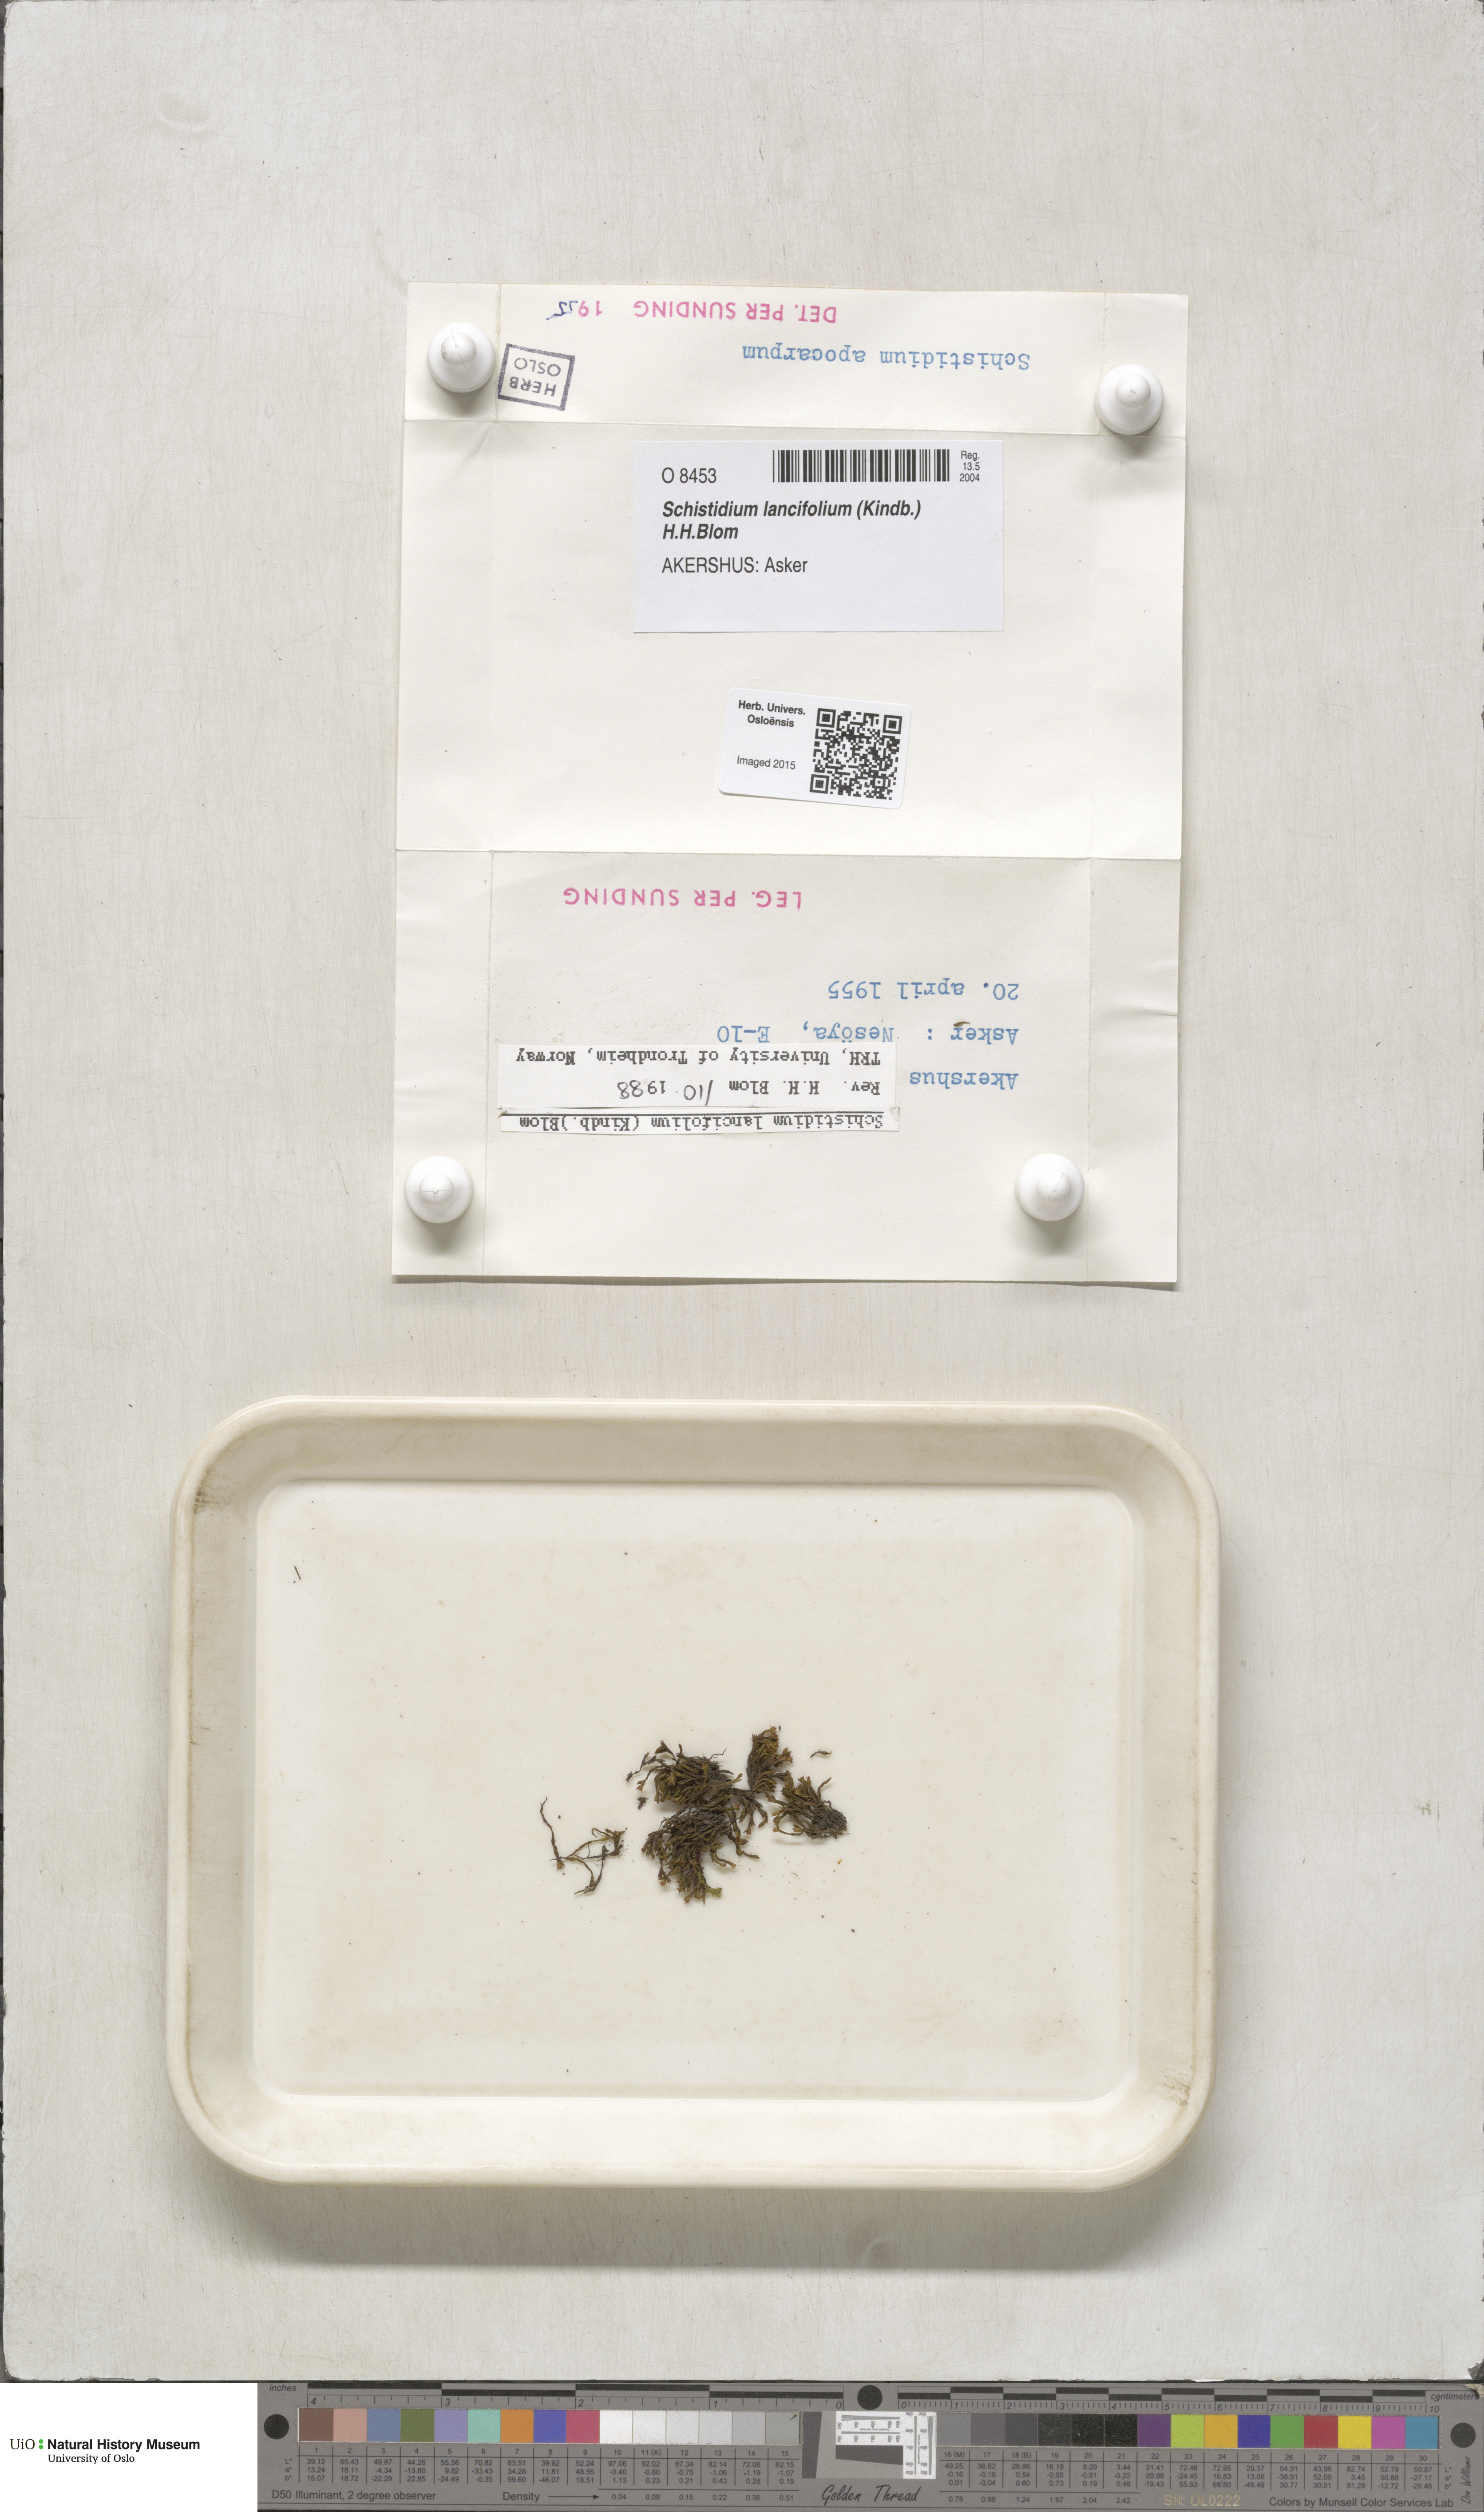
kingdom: Plantae
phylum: Bryophyta
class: Bryopsida
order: Grimmiales
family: Grimmiaceae
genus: Schistidium
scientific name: Schistidium lancifolium
